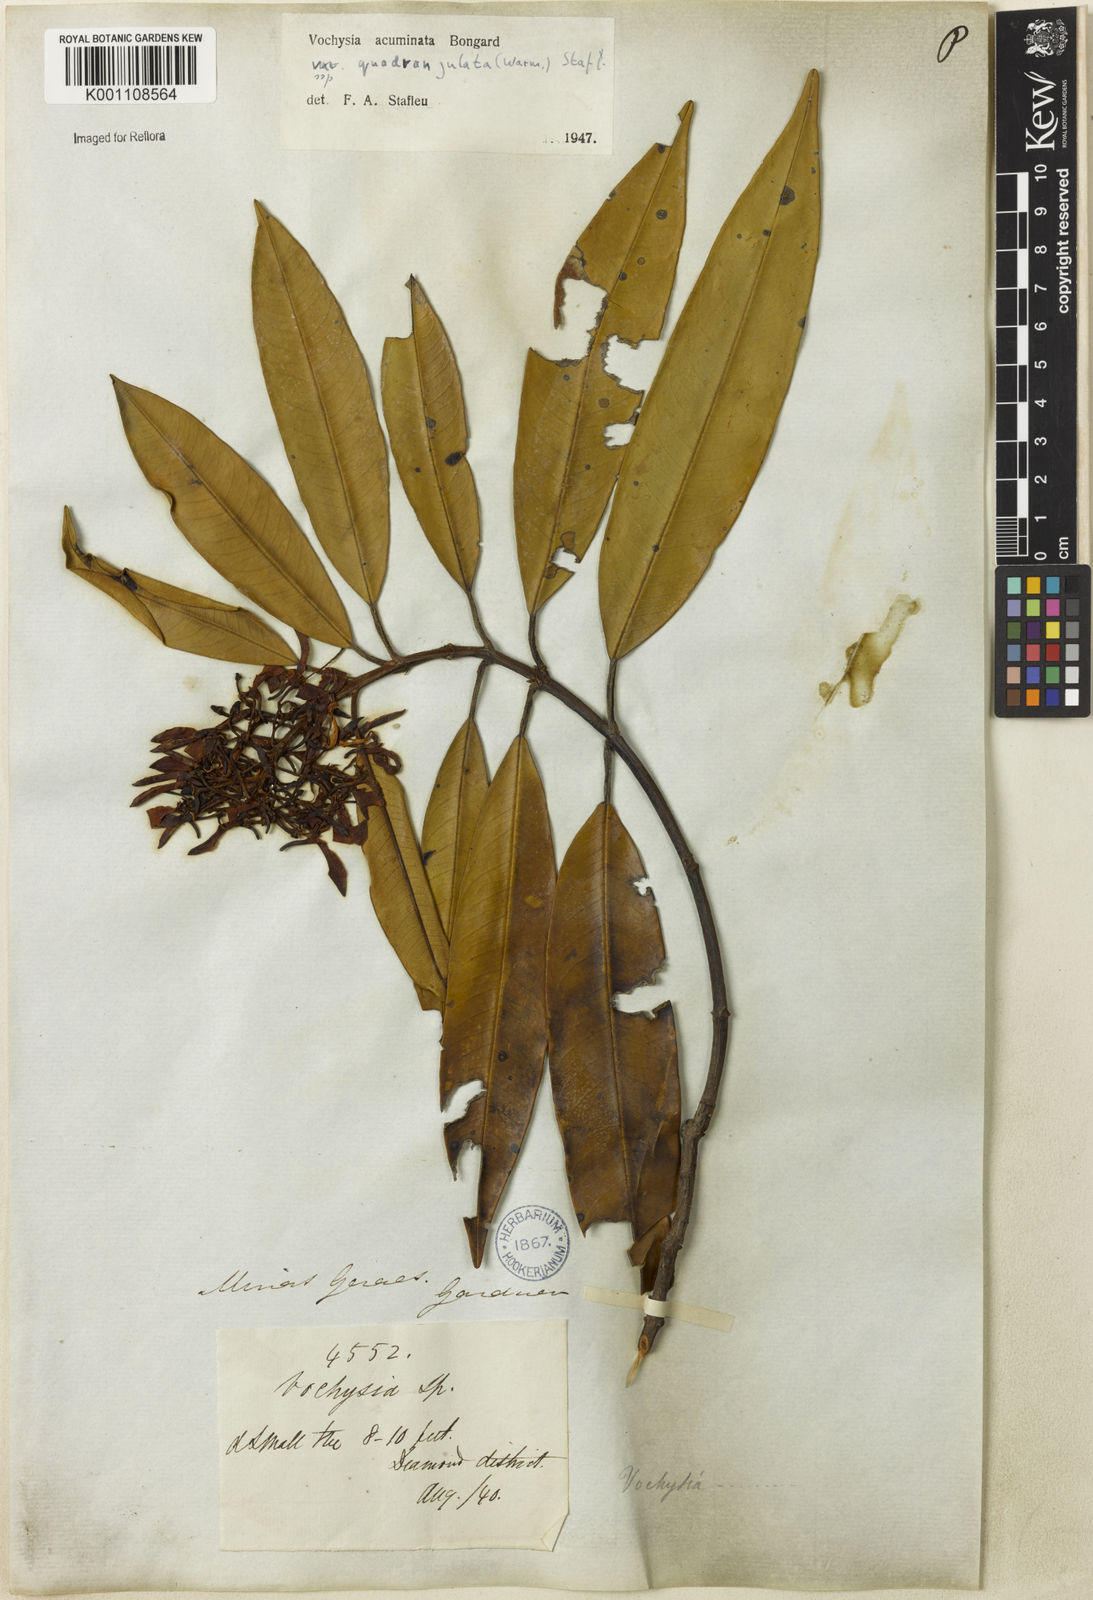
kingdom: Plantae
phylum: Tracheophyta
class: Magnoliopsida
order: Myrtales
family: Vochysiaceae
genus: Vochysia
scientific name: Vochysia acuminata
